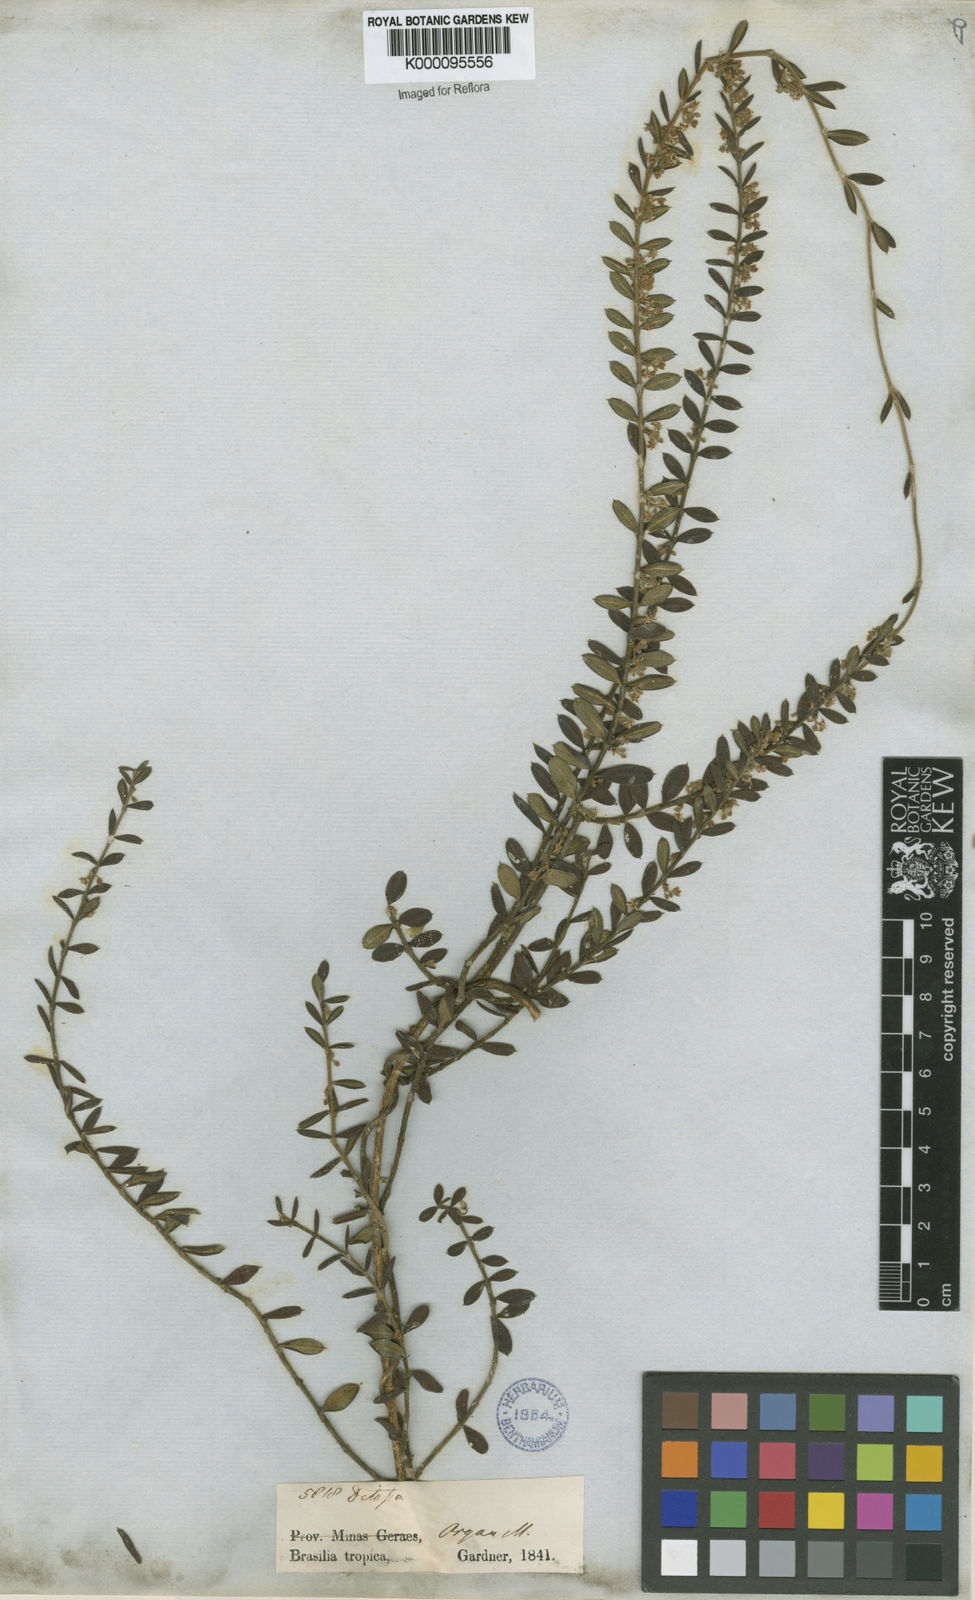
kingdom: Plantae
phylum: Tracheophyta
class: Magnoliopsida
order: Gentianales
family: Apocynaceae
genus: Ditassa
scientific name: Ditassa mucronata
